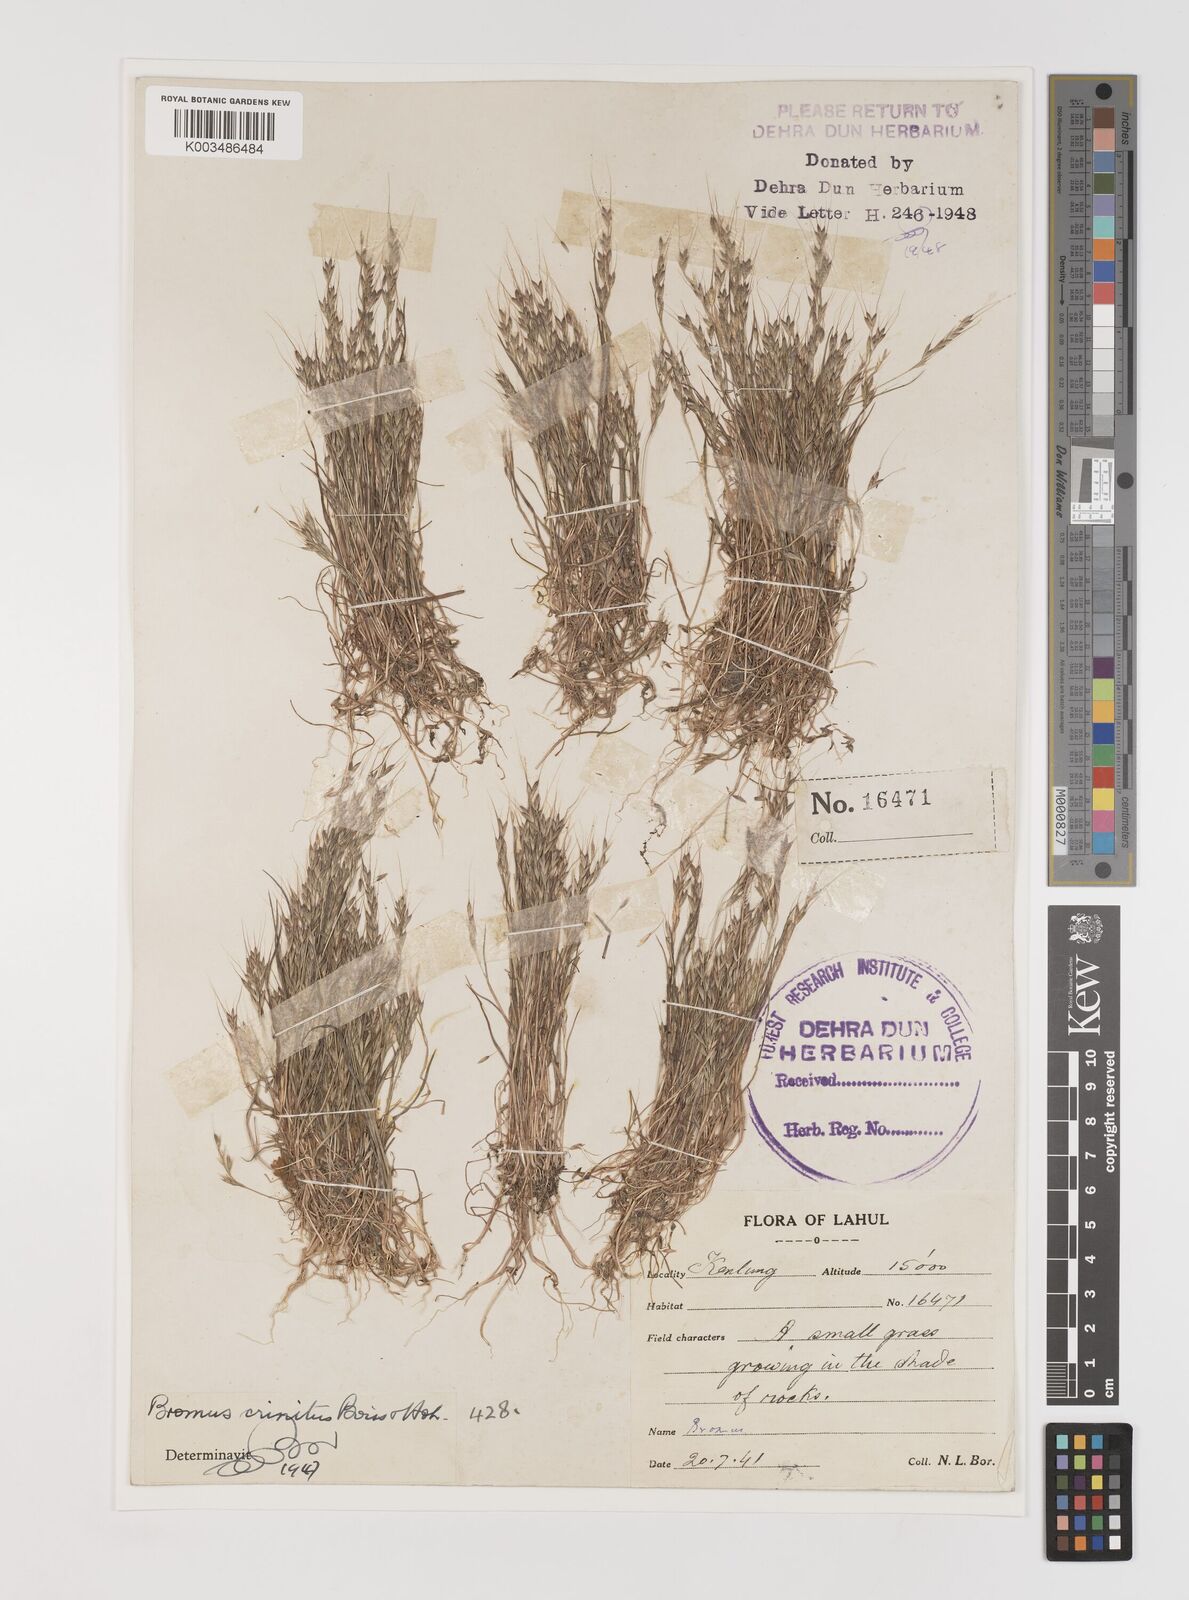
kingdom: Plantae
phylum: Tracheophyta
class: Liliopsida
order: Poales
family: Poaceae
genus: Bromus
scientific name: Bromus gracillimus
